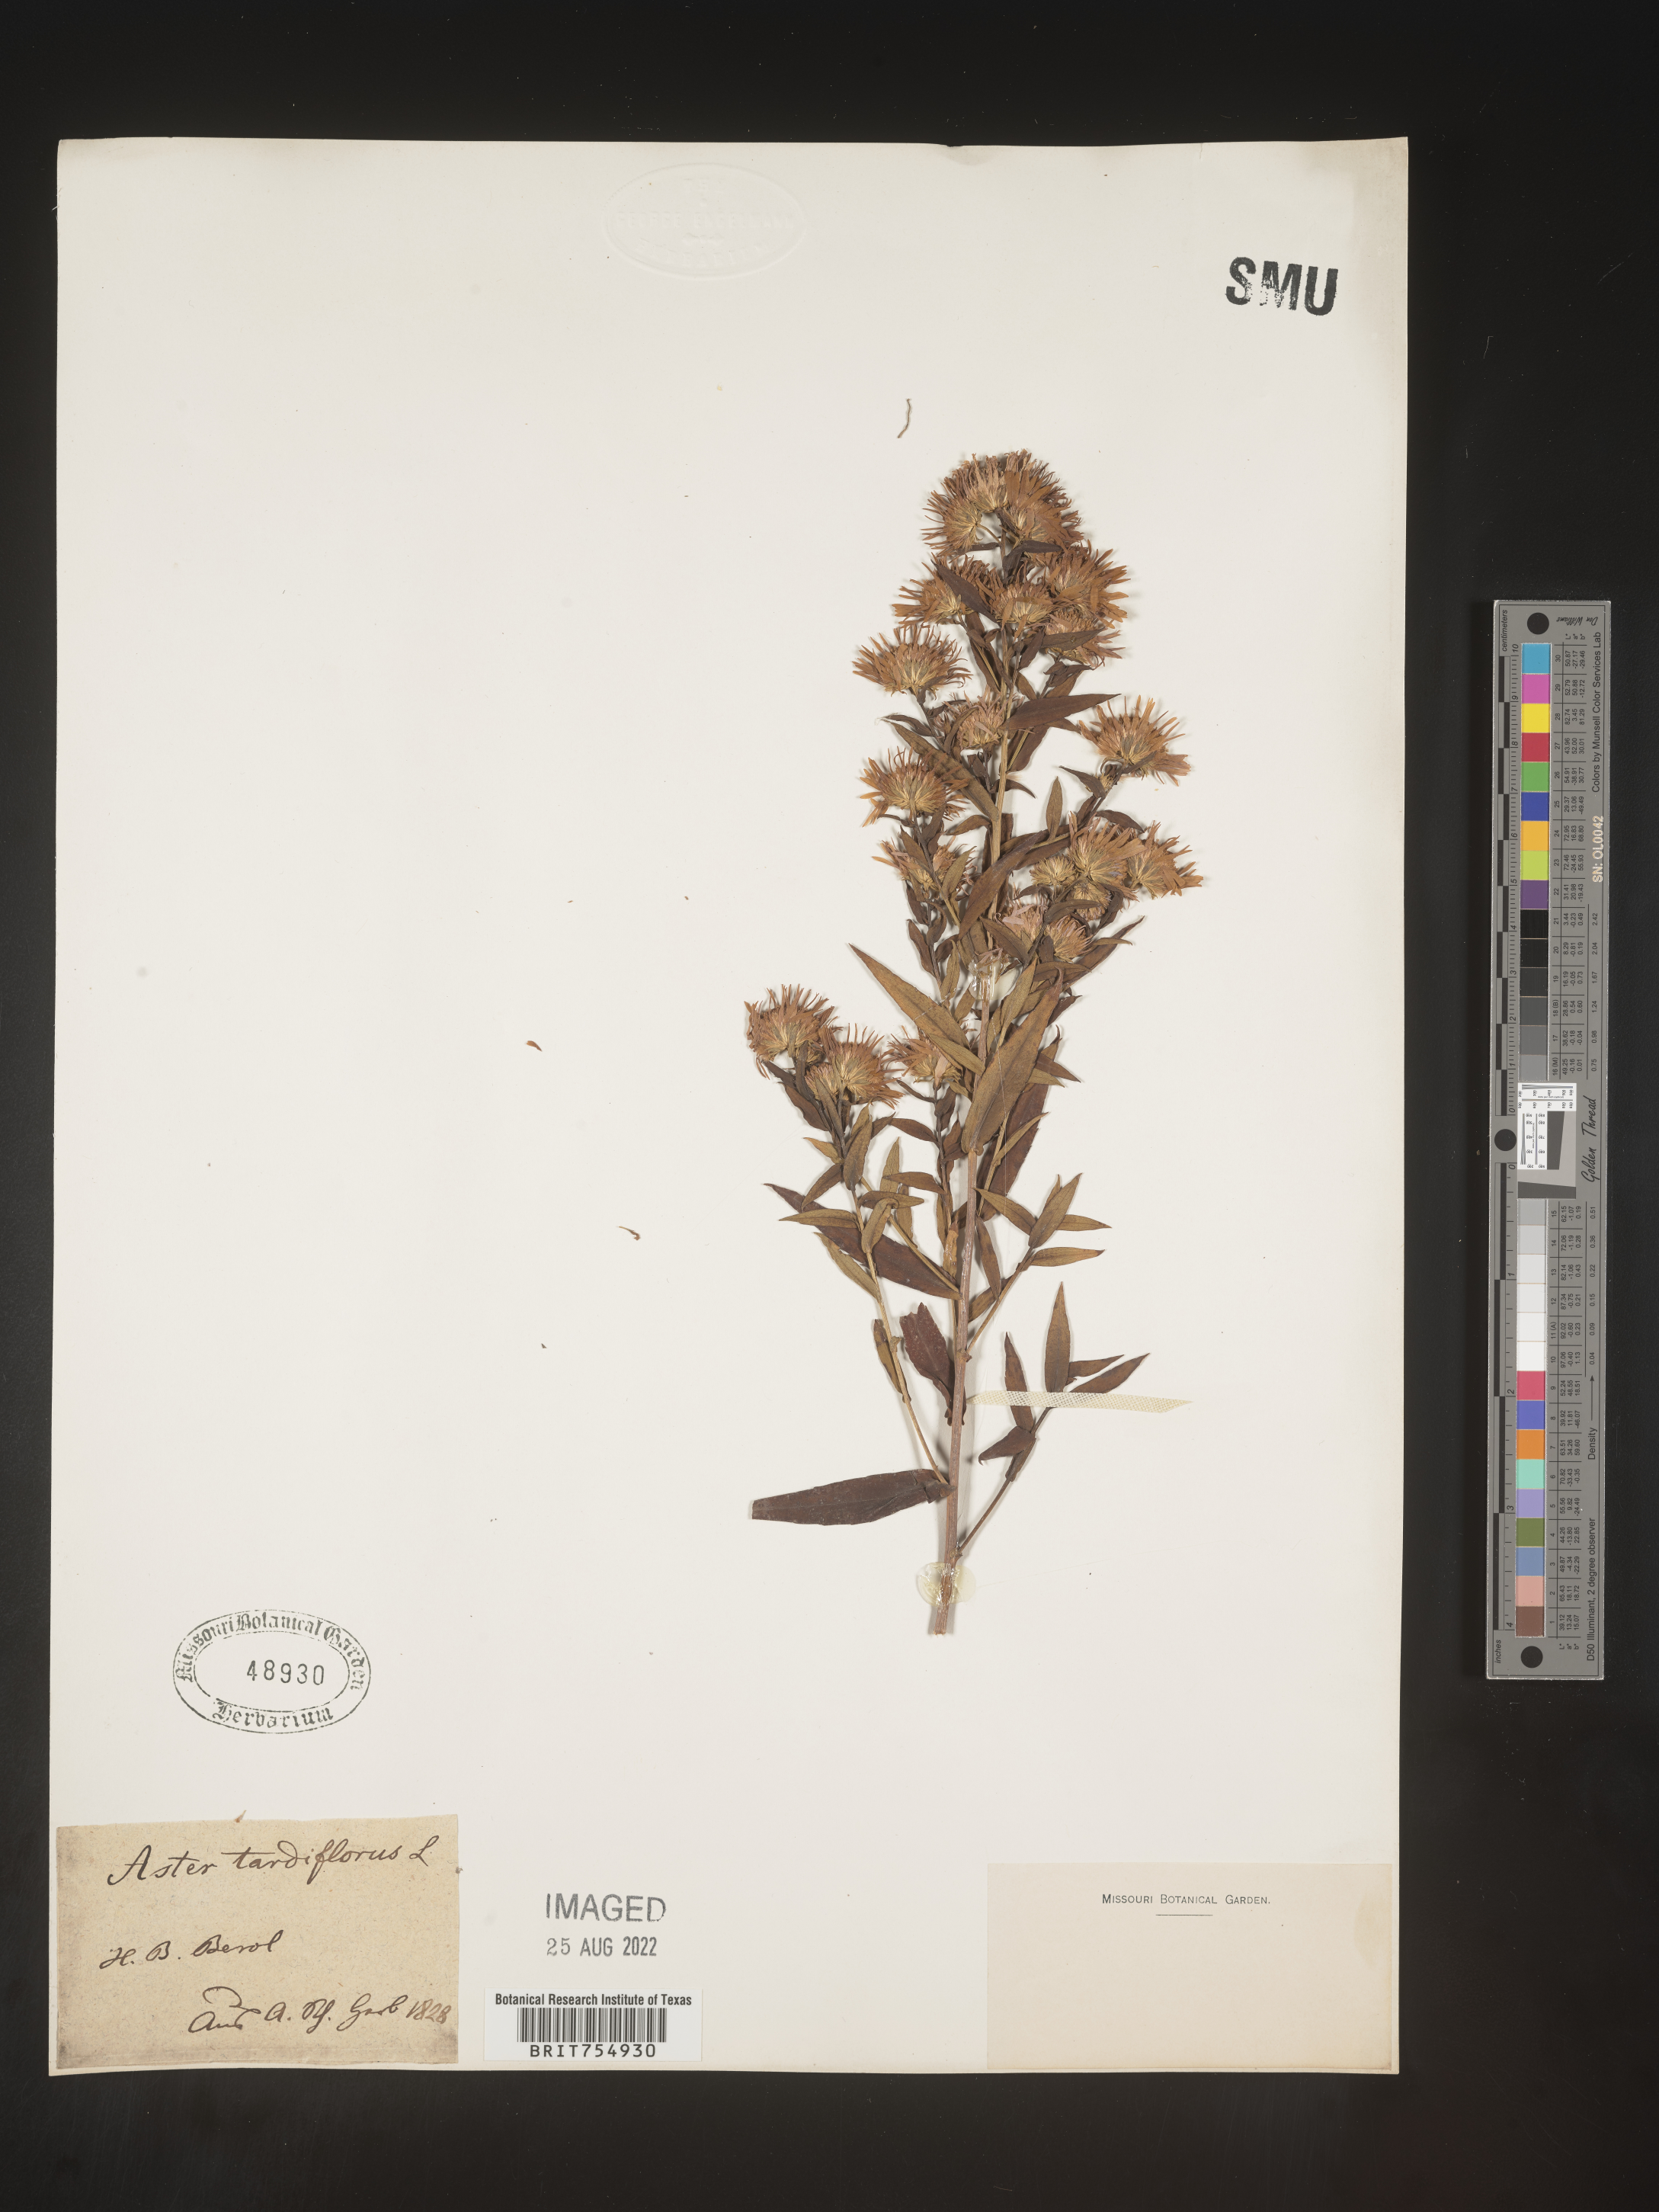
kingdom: Plantae
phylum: Tracheophyta
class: Magnoliopsida
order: Asterales
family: Asteraceae
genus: Symphyotrichum
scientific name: Symphyotrichum
